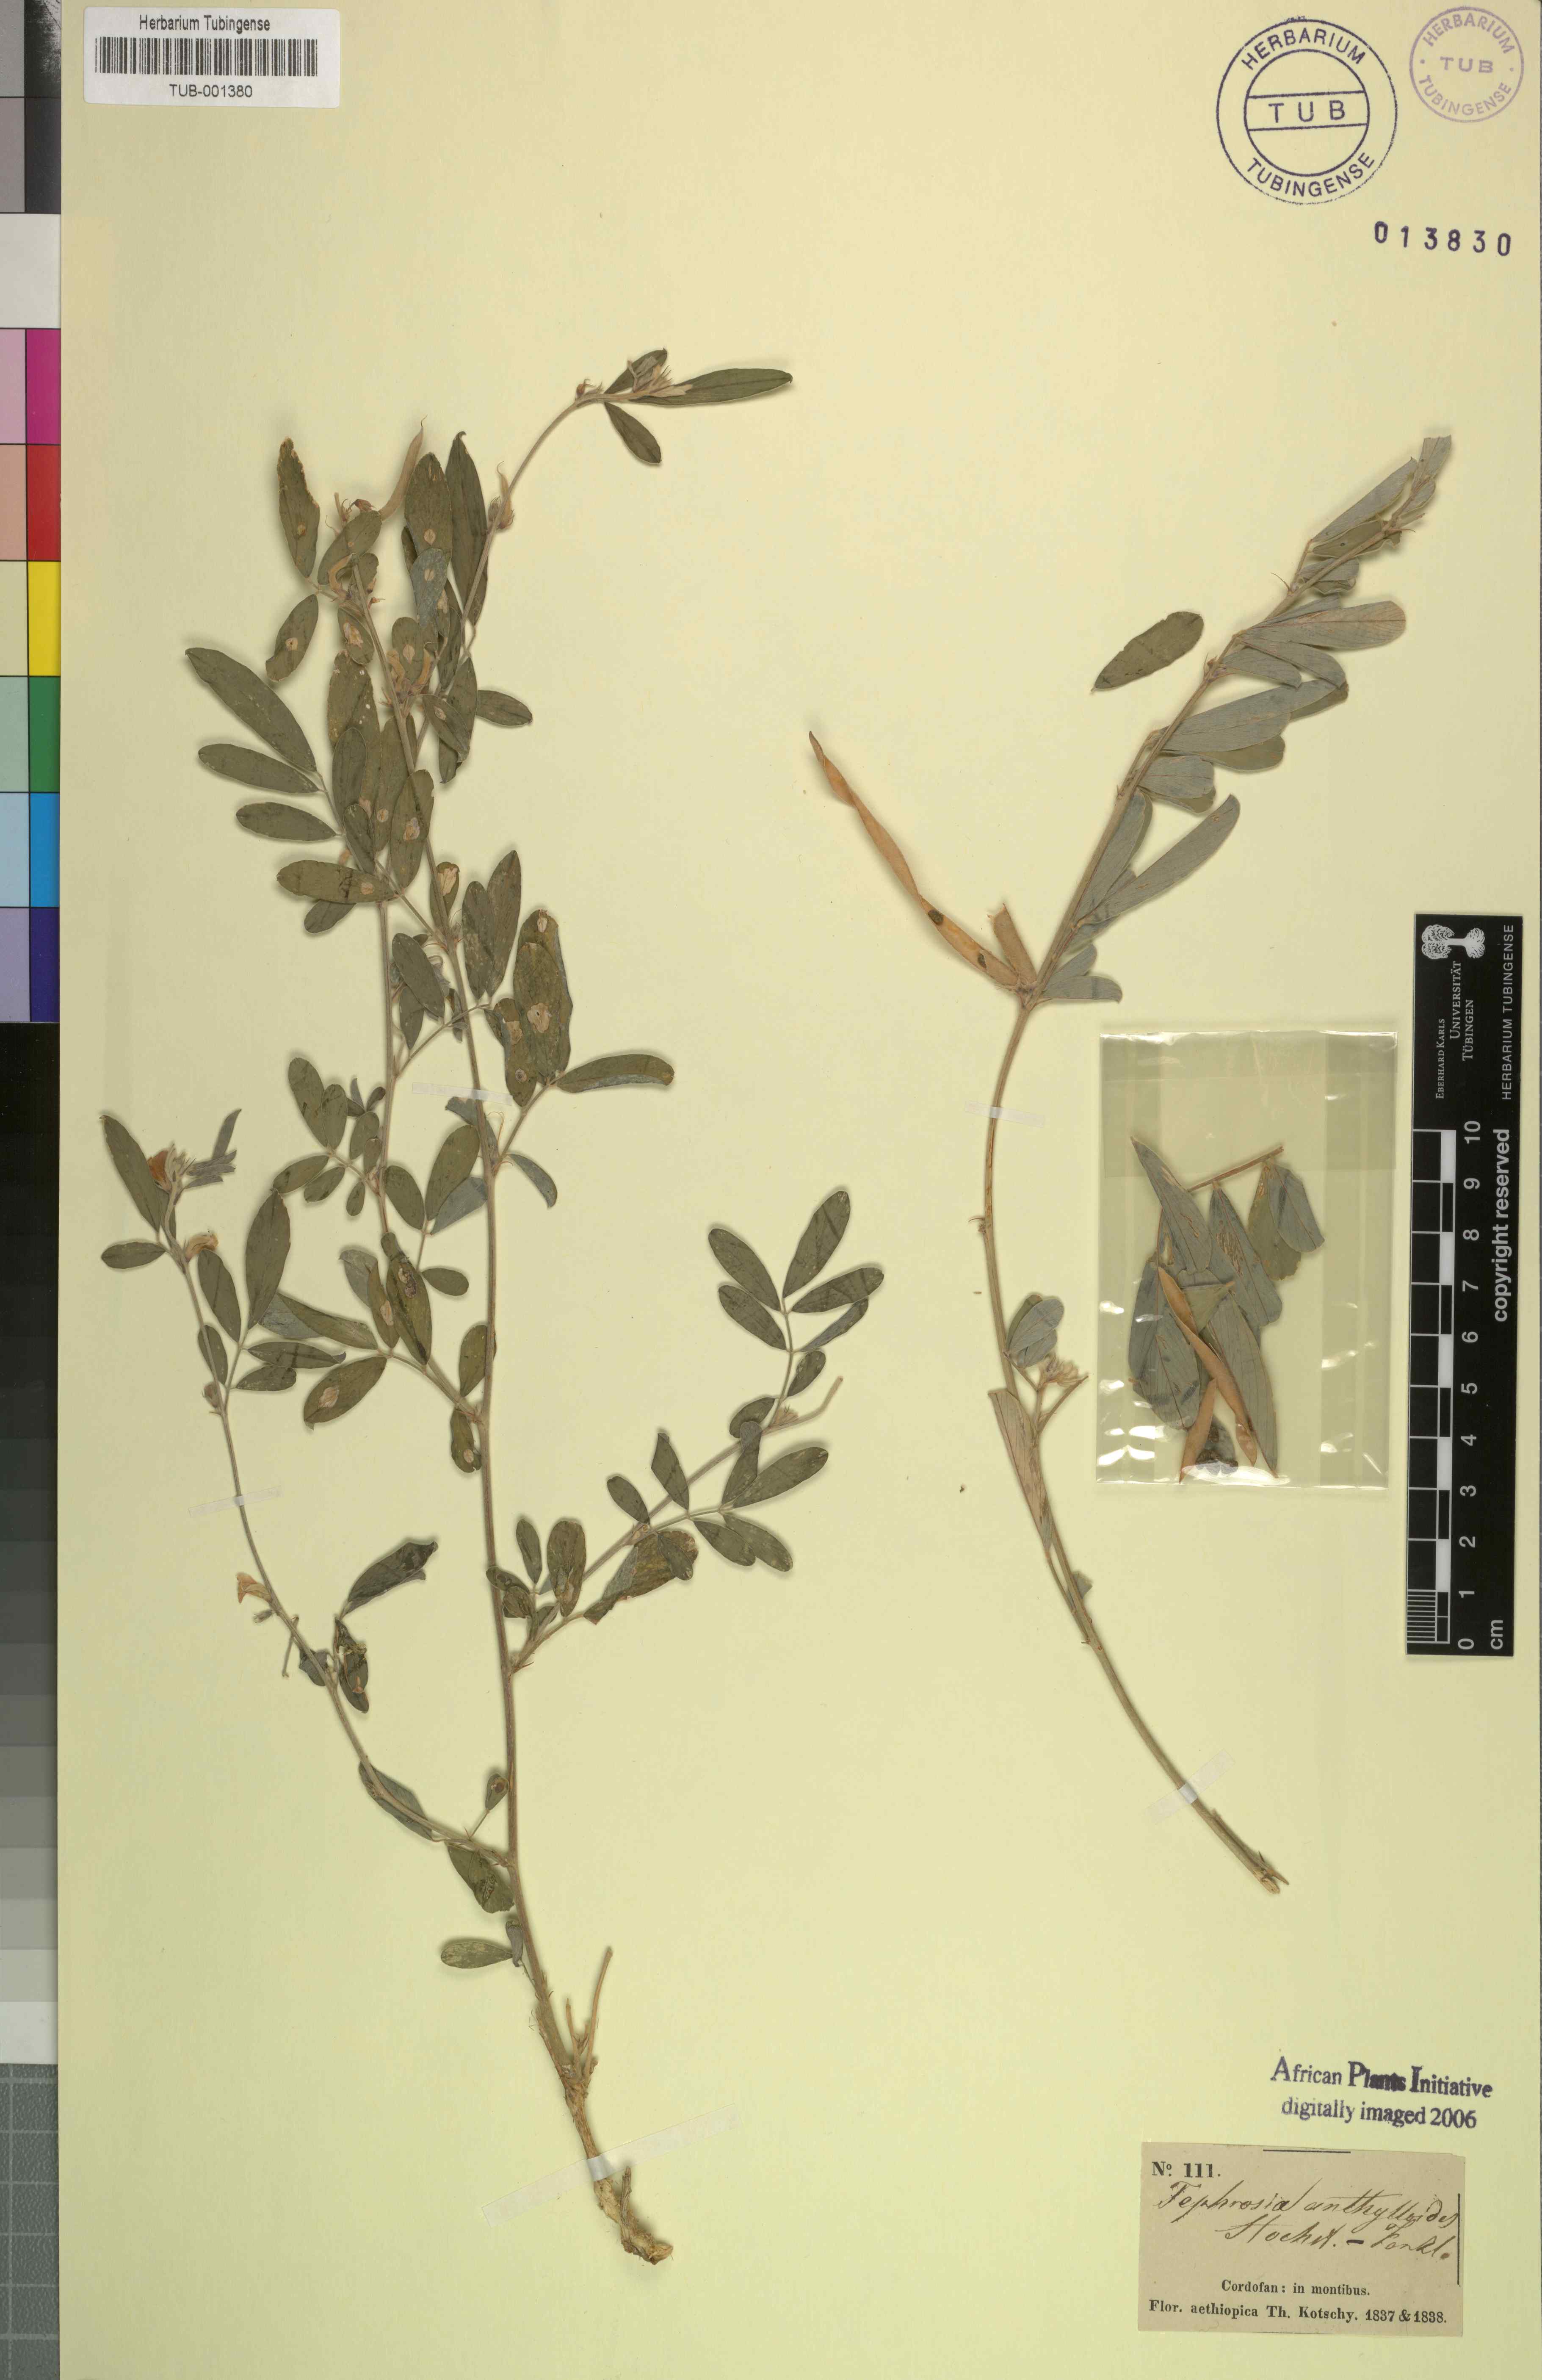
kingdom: Plantae
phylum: Tracheophyta
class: Magnoliopsida
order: Fabales
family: Fabaceae
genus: Tephrosia
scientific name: Tephrosia uniflora
